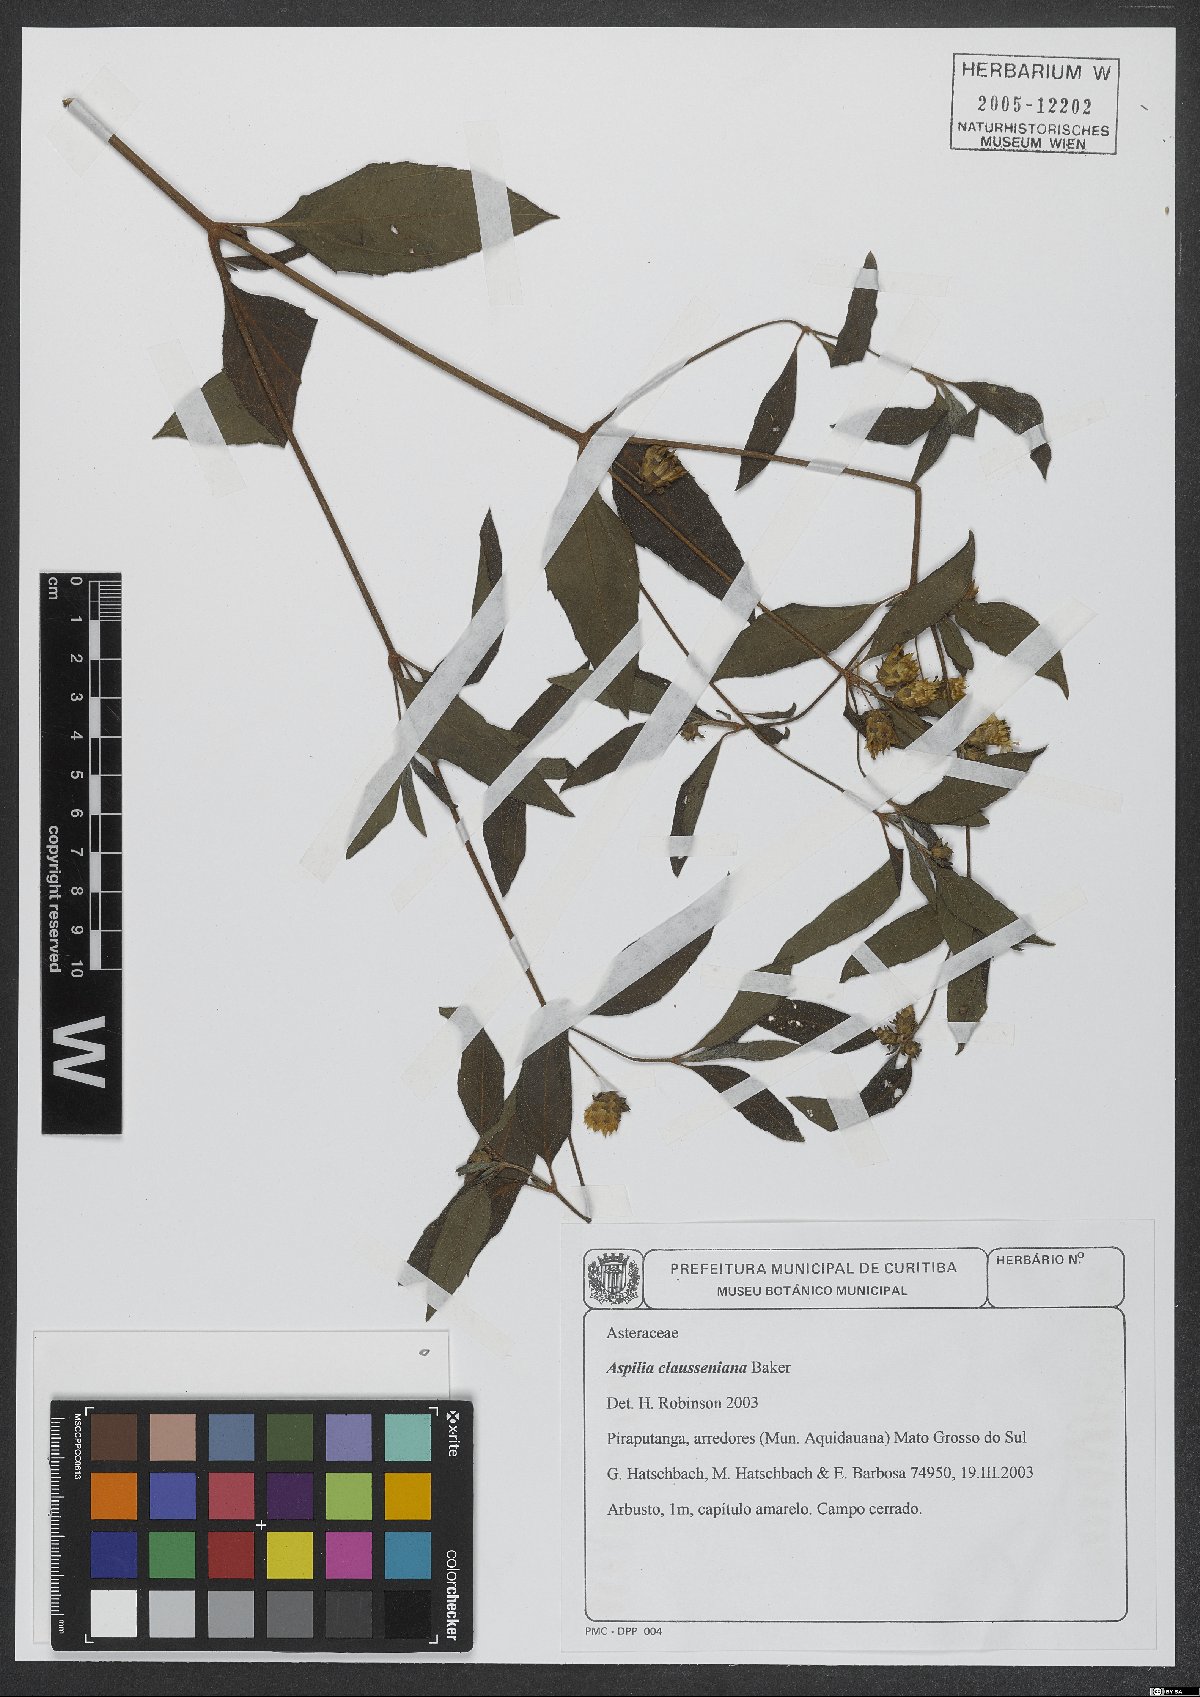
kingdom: Plantae
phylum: Tracheophyta
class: Magnoliopsida
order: Asterales
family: Asteraceae
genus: Aspilia
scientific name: Aspilia clausseniana
